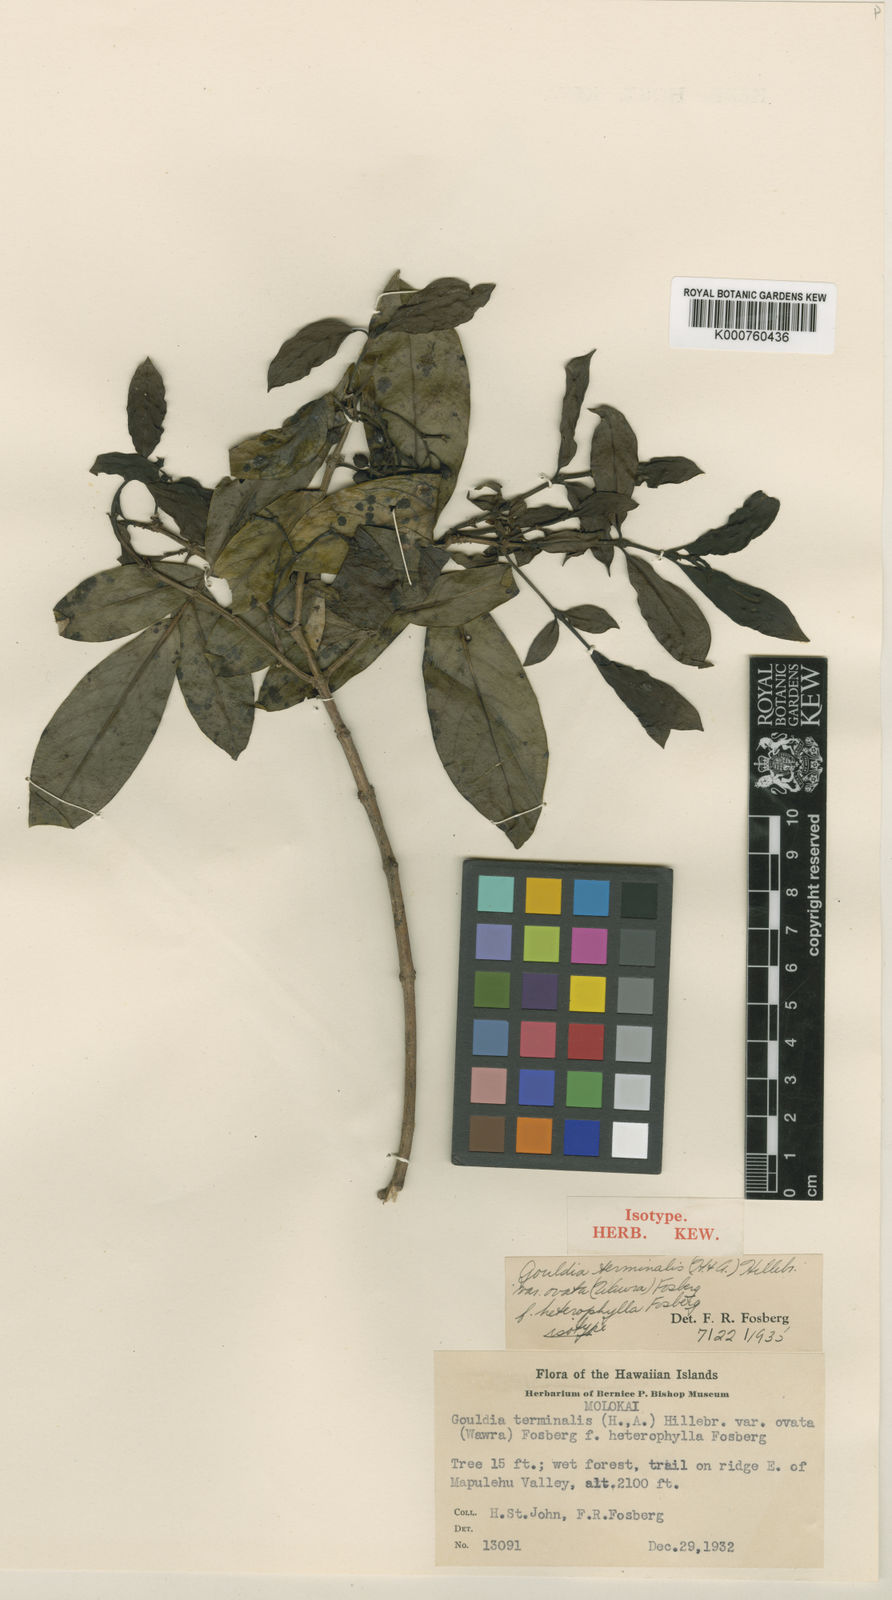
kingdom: Plantae
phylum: Tracheophyta
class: Magnoliopsida
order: Gentianales
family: Rubiaceae
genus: Kadua
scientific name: Kadua affinis
